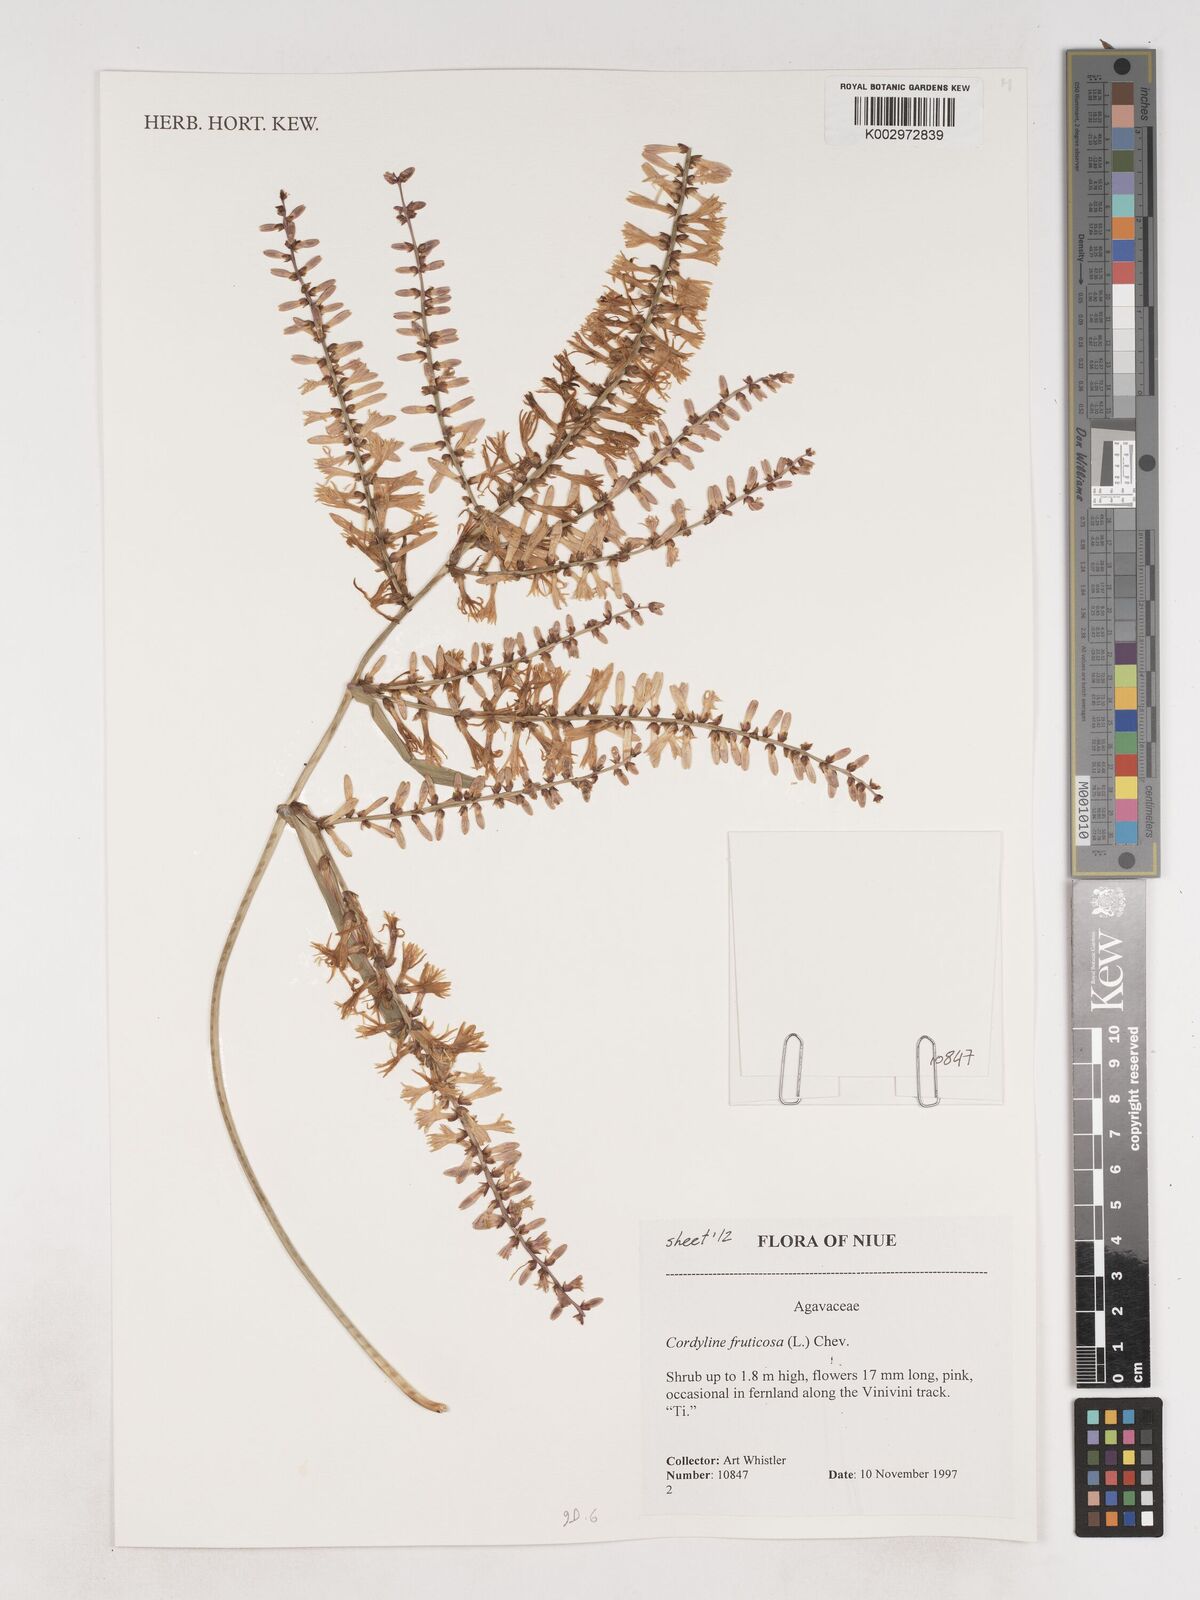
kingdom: Plantae
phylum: Tracheophyta
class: Liliopsida
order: Asparagales
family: Asparagaceae
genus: Dracaena
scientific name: Dracaena angustifolia
